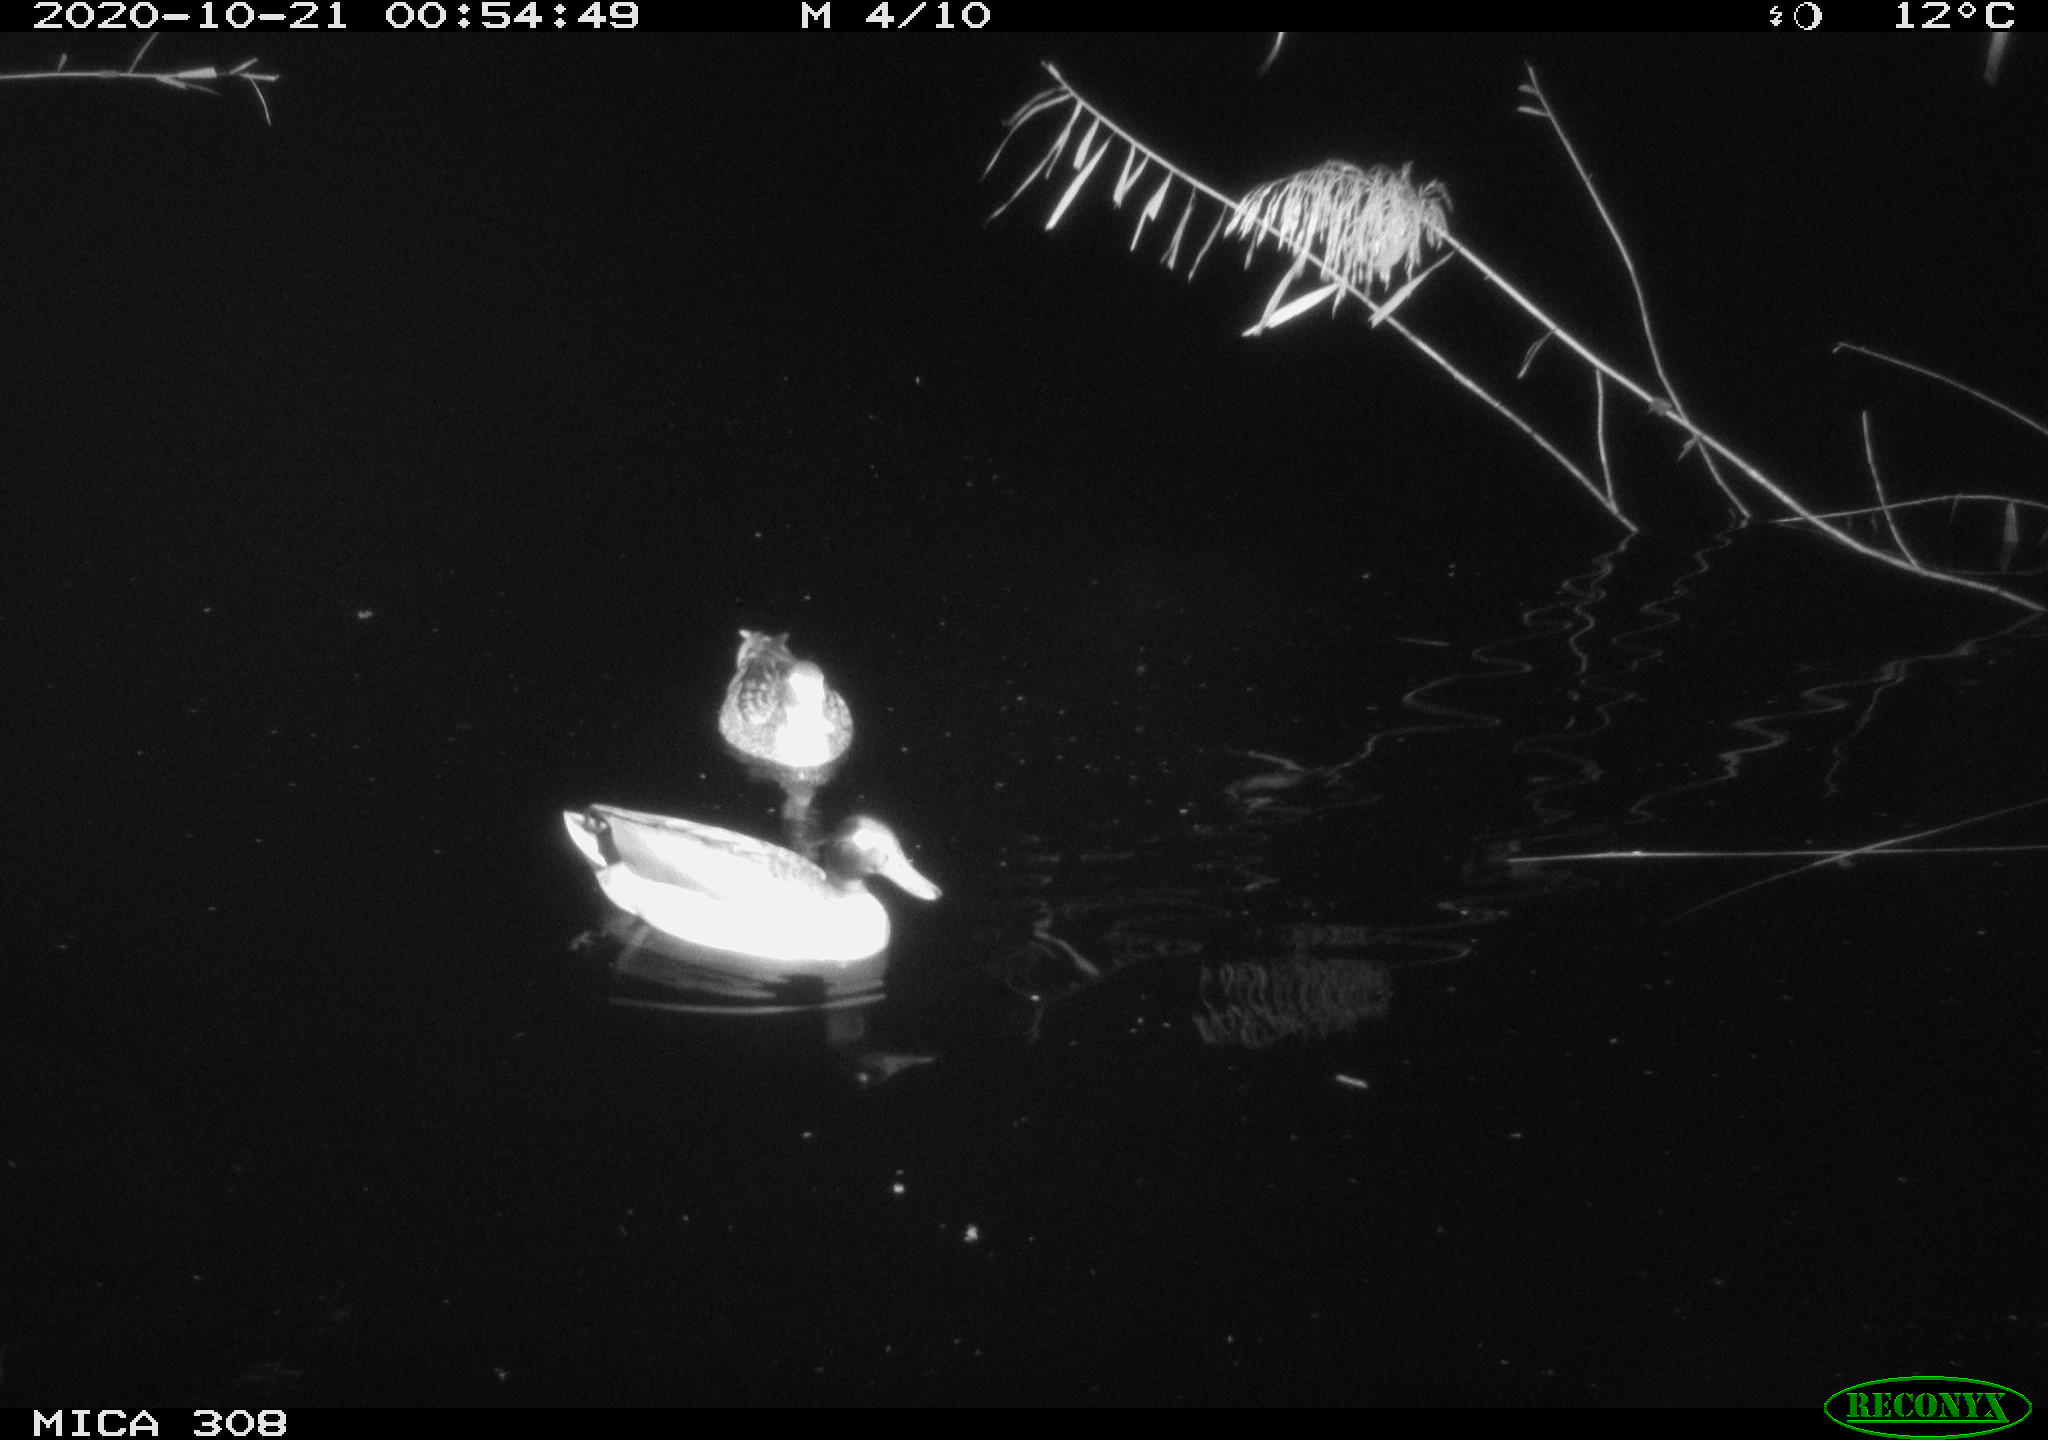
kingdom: Animalia
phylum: Chordata
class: Aves
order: Anseriformes
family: Anatidae
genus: Anas
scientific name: Anas platyrhynchos
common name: Mallard
